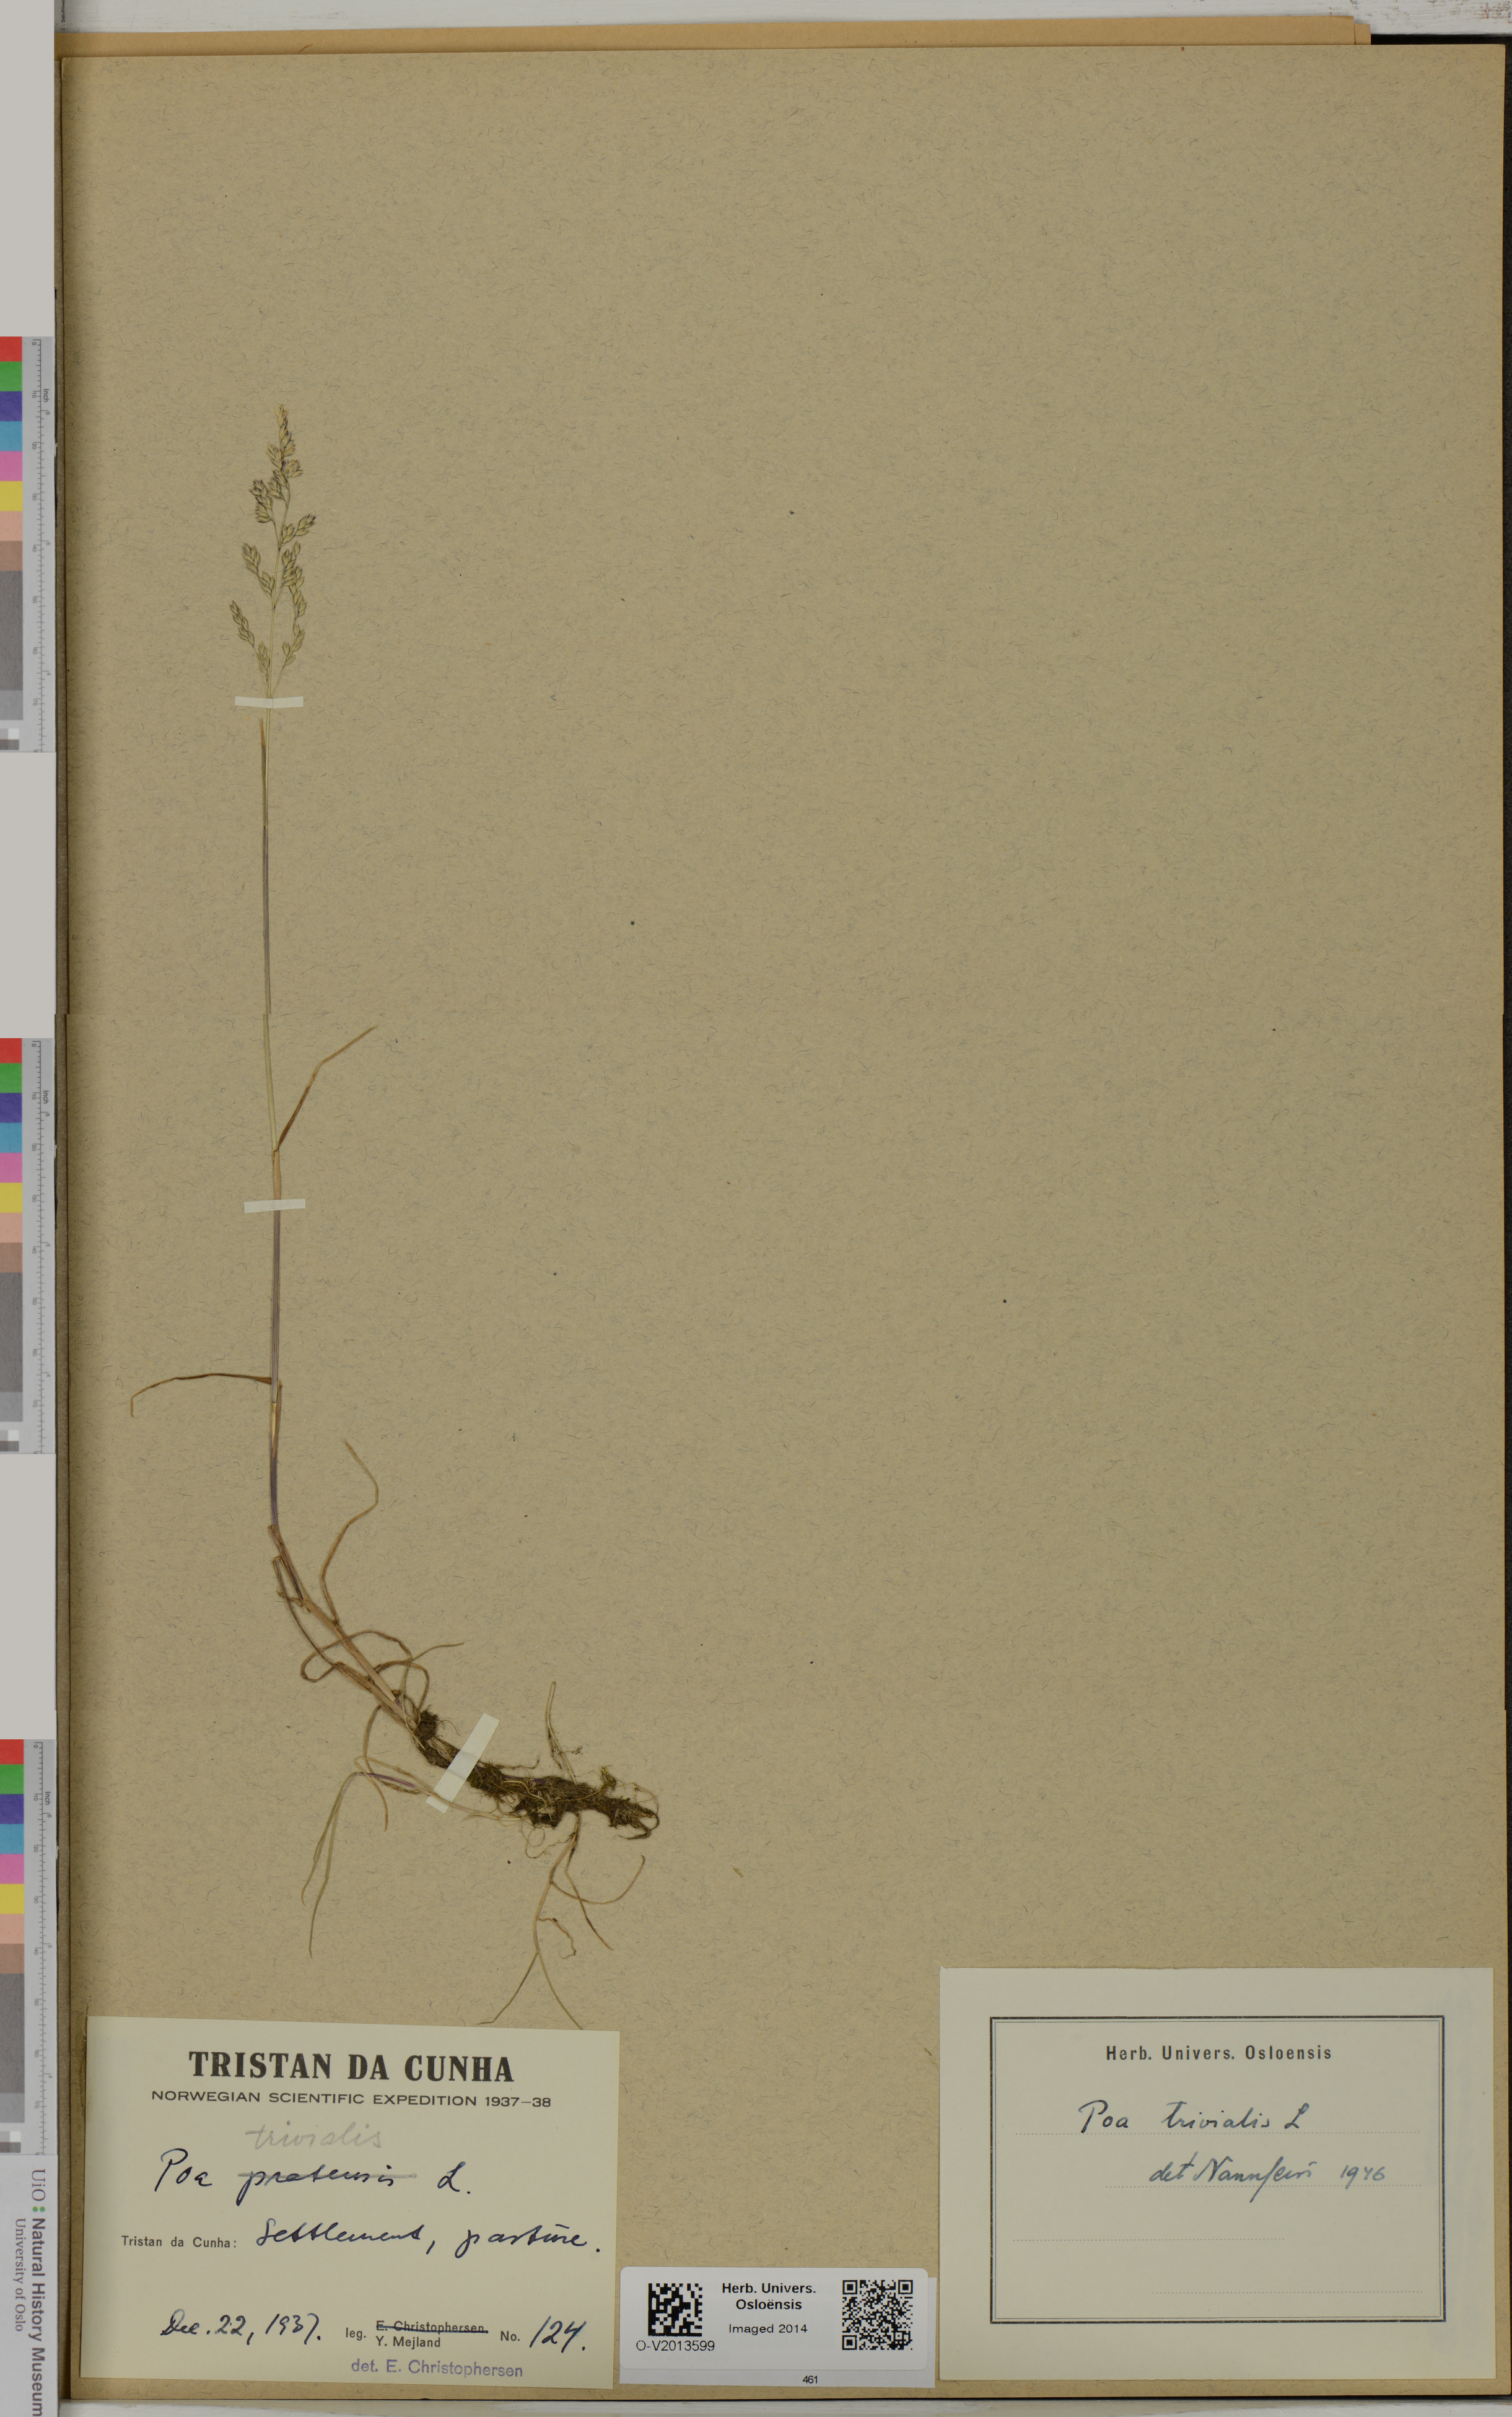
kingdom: Plantae
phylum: Tracheophyta
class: Liliopsida
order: Poales
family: Poaceae
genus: Poa
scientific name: Poa trivialis
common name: Rough bluegrass
